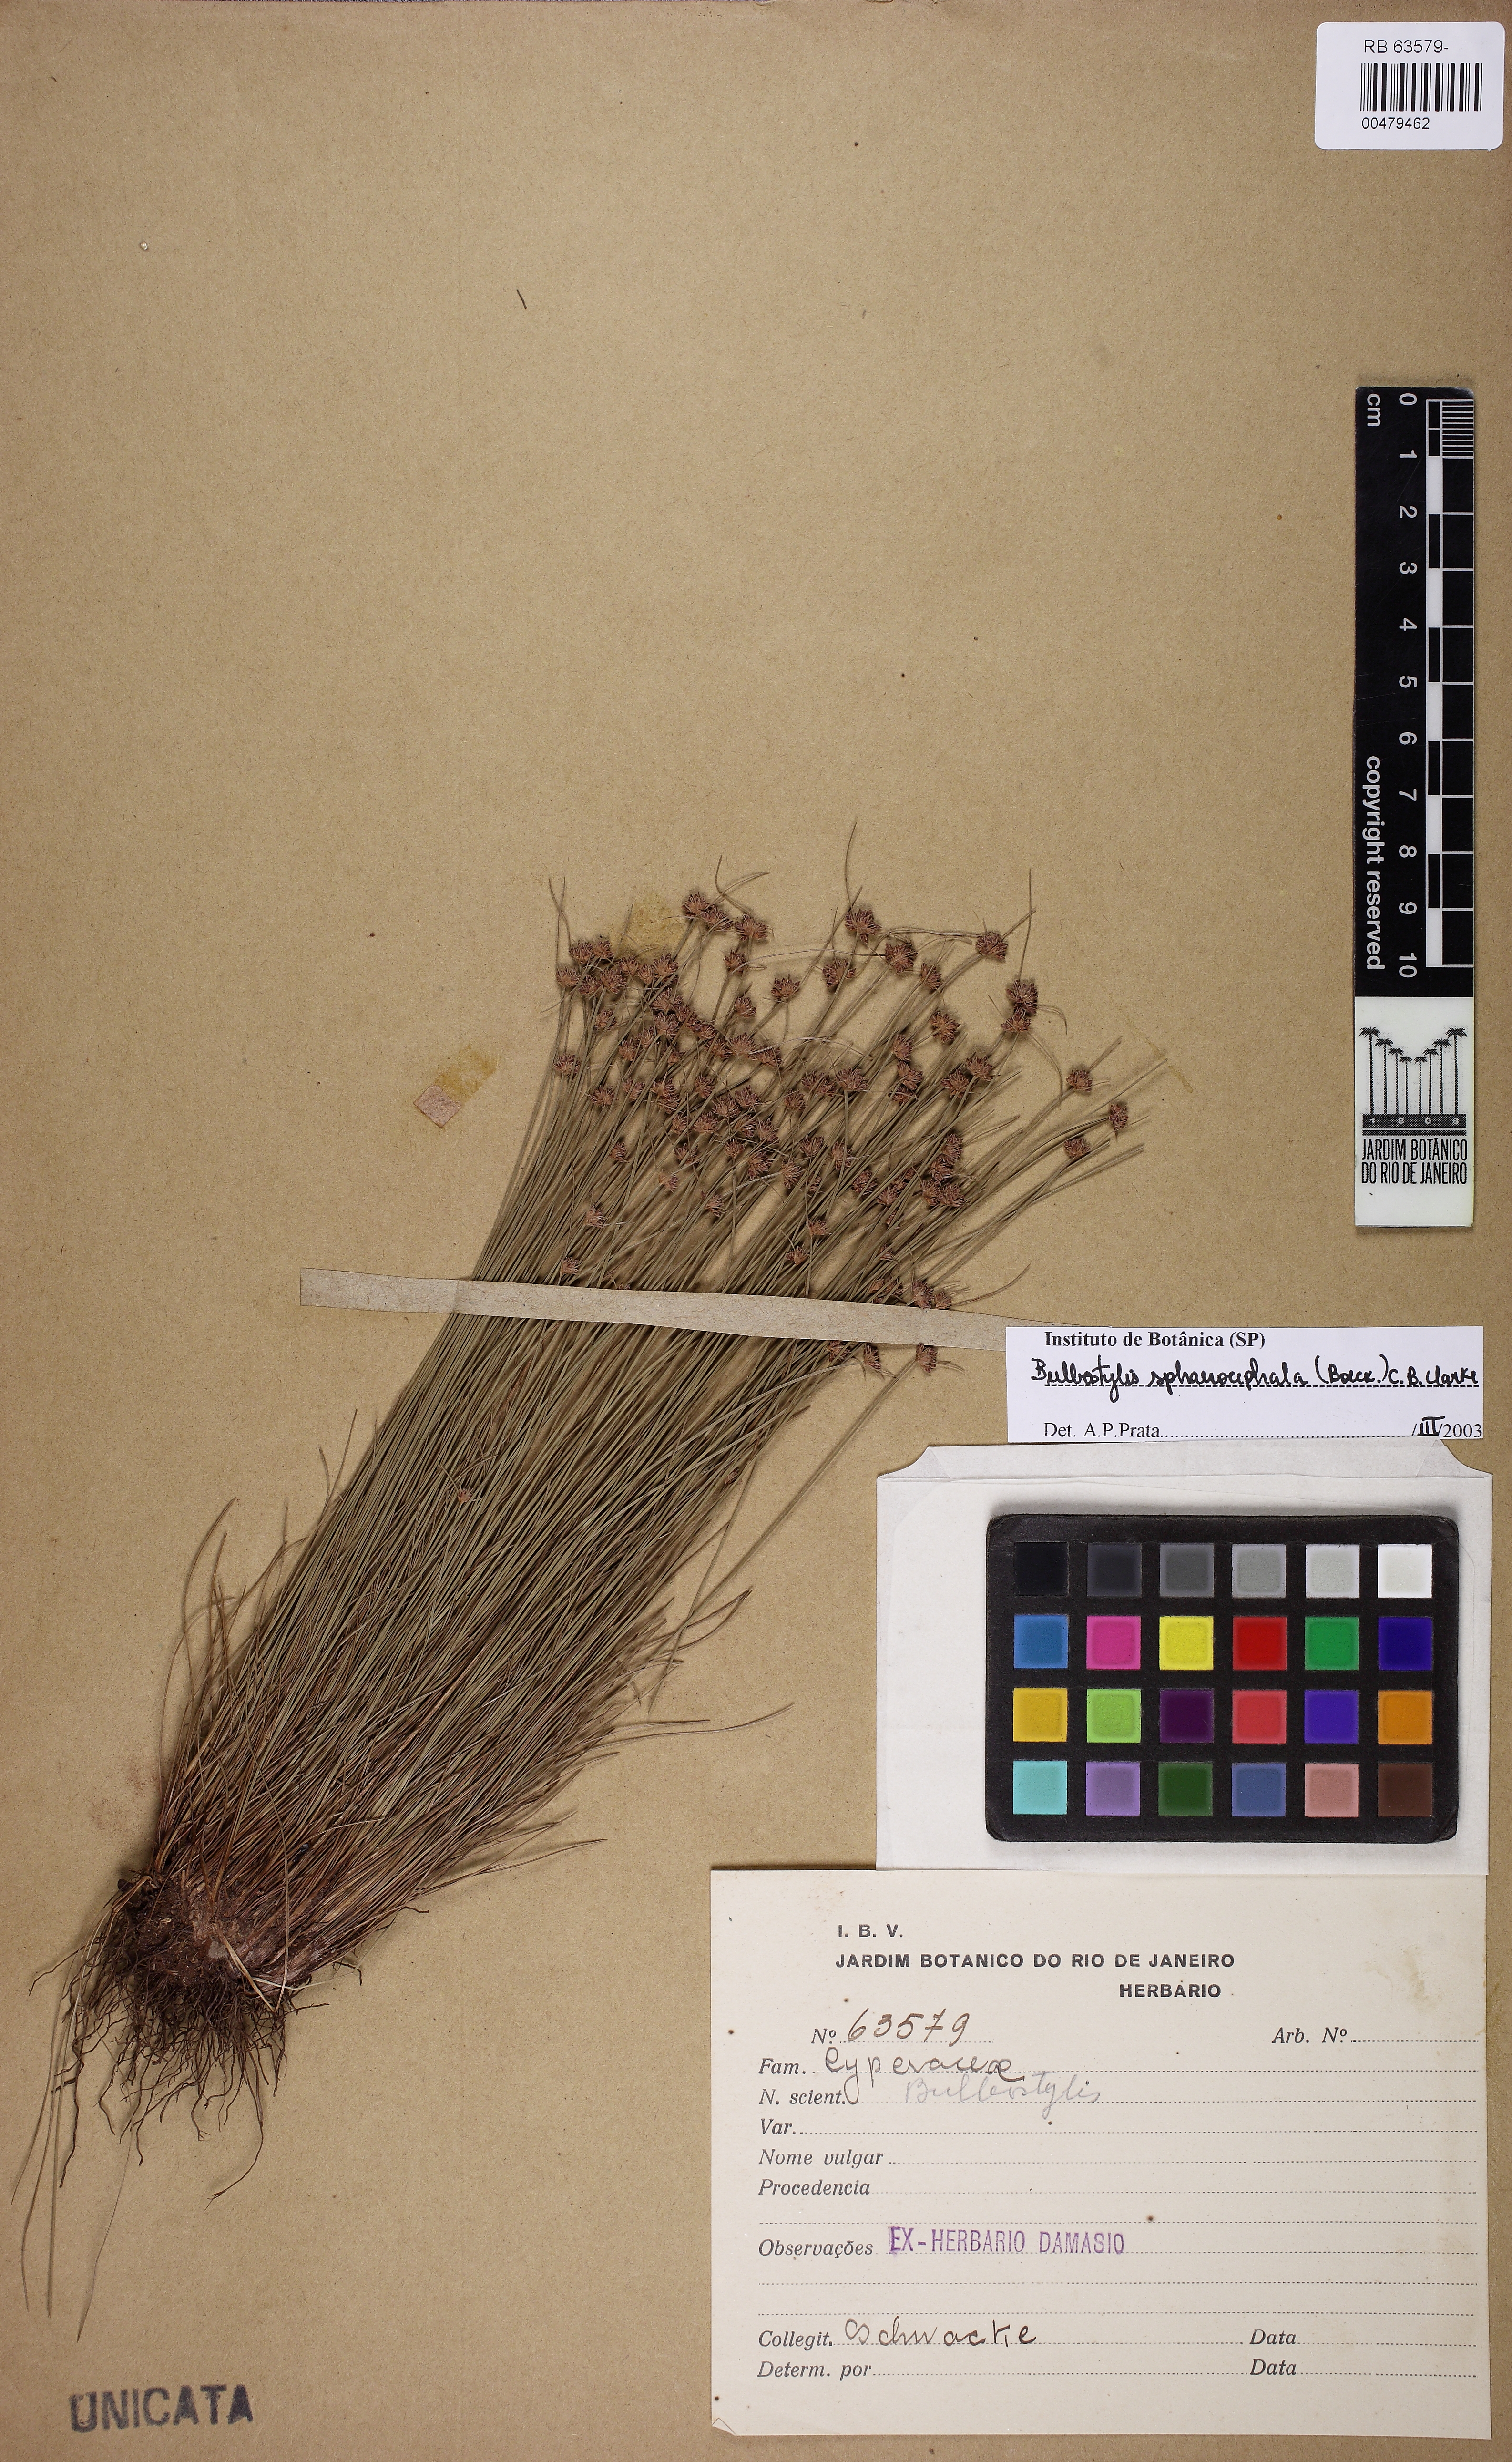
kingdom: Plantae
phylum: Tracheophyta
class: Liliopsida
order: Poales
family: Cyperaceae
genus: Bulbostylis
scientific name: Bulbostylis sphaerocephala
